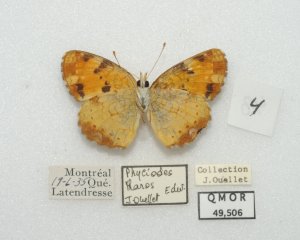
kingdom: Animalia
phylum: Arthropoda
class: Insecta
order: Lepidoptera
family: Nymphalidae
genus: Phyciodes
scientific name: Phyciodes tharos
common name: Northern Crescent
